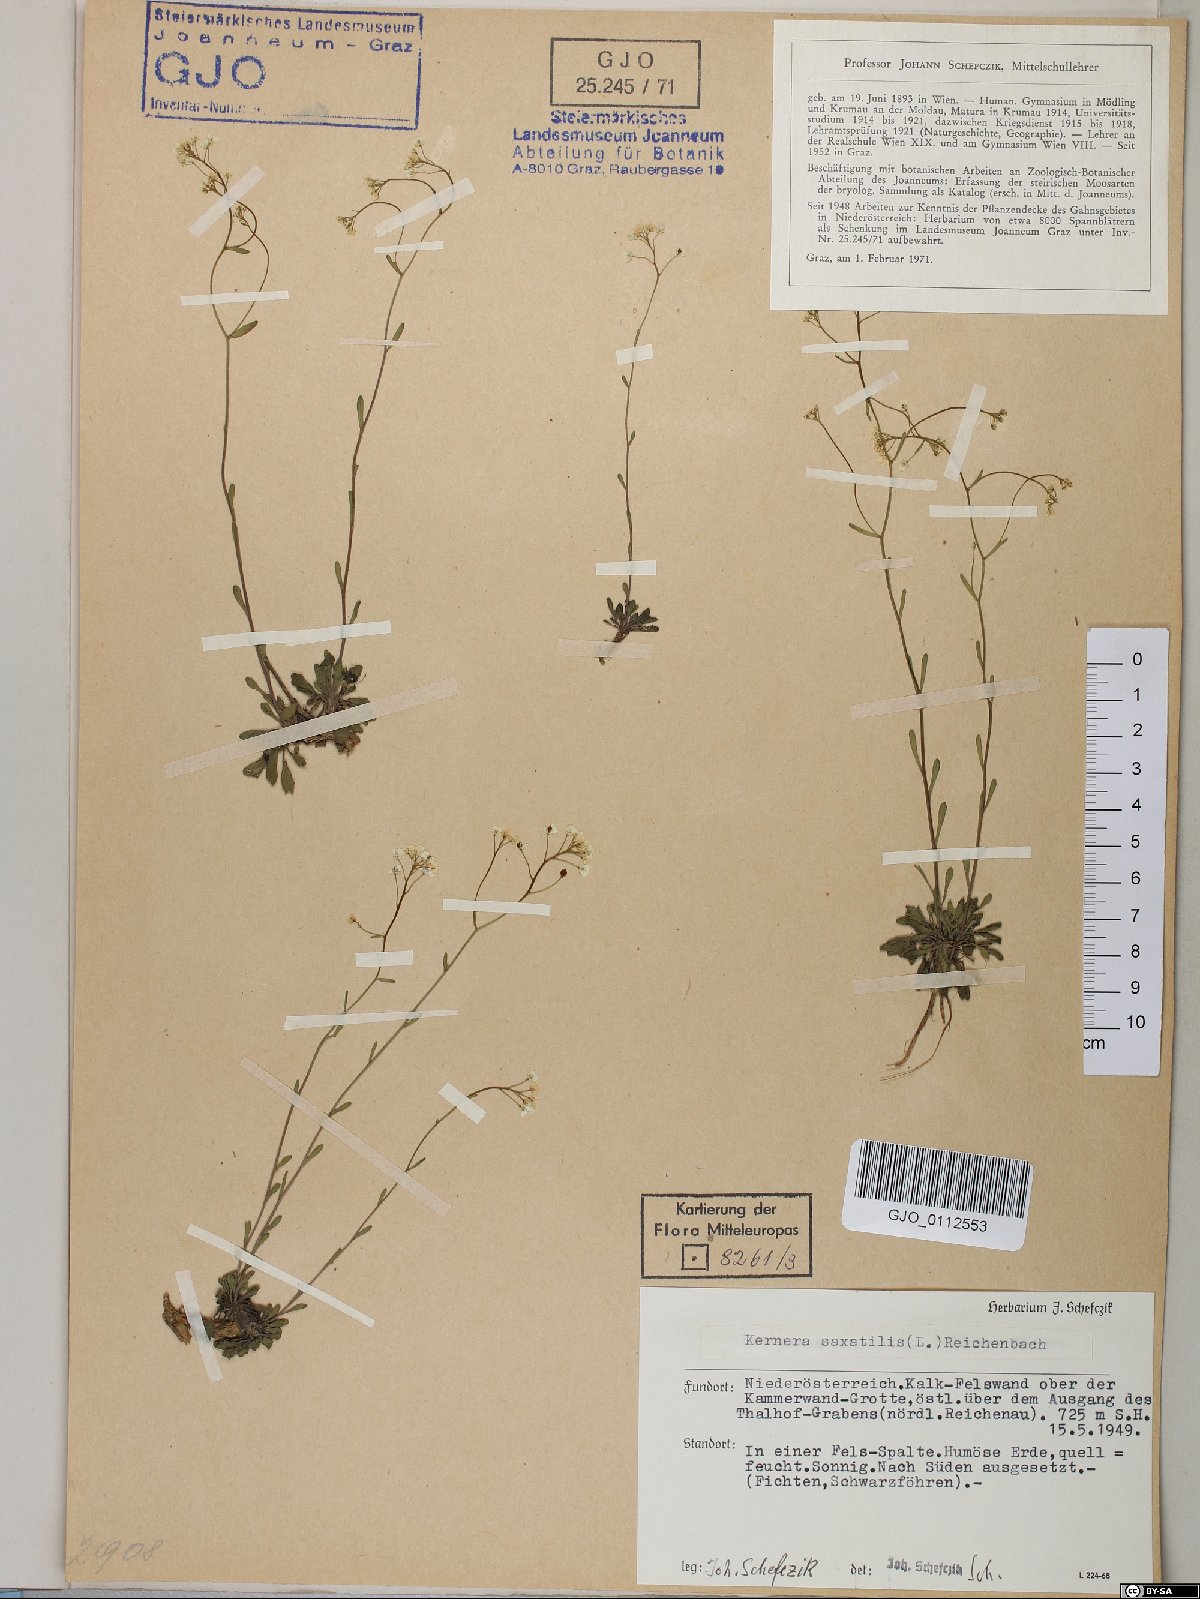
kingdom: Plantae
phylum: Tracheophyta
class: Magnoliopsida
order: Brassicales
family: Brassicaceae
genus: Kernera
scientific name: Kernera saxatilis
